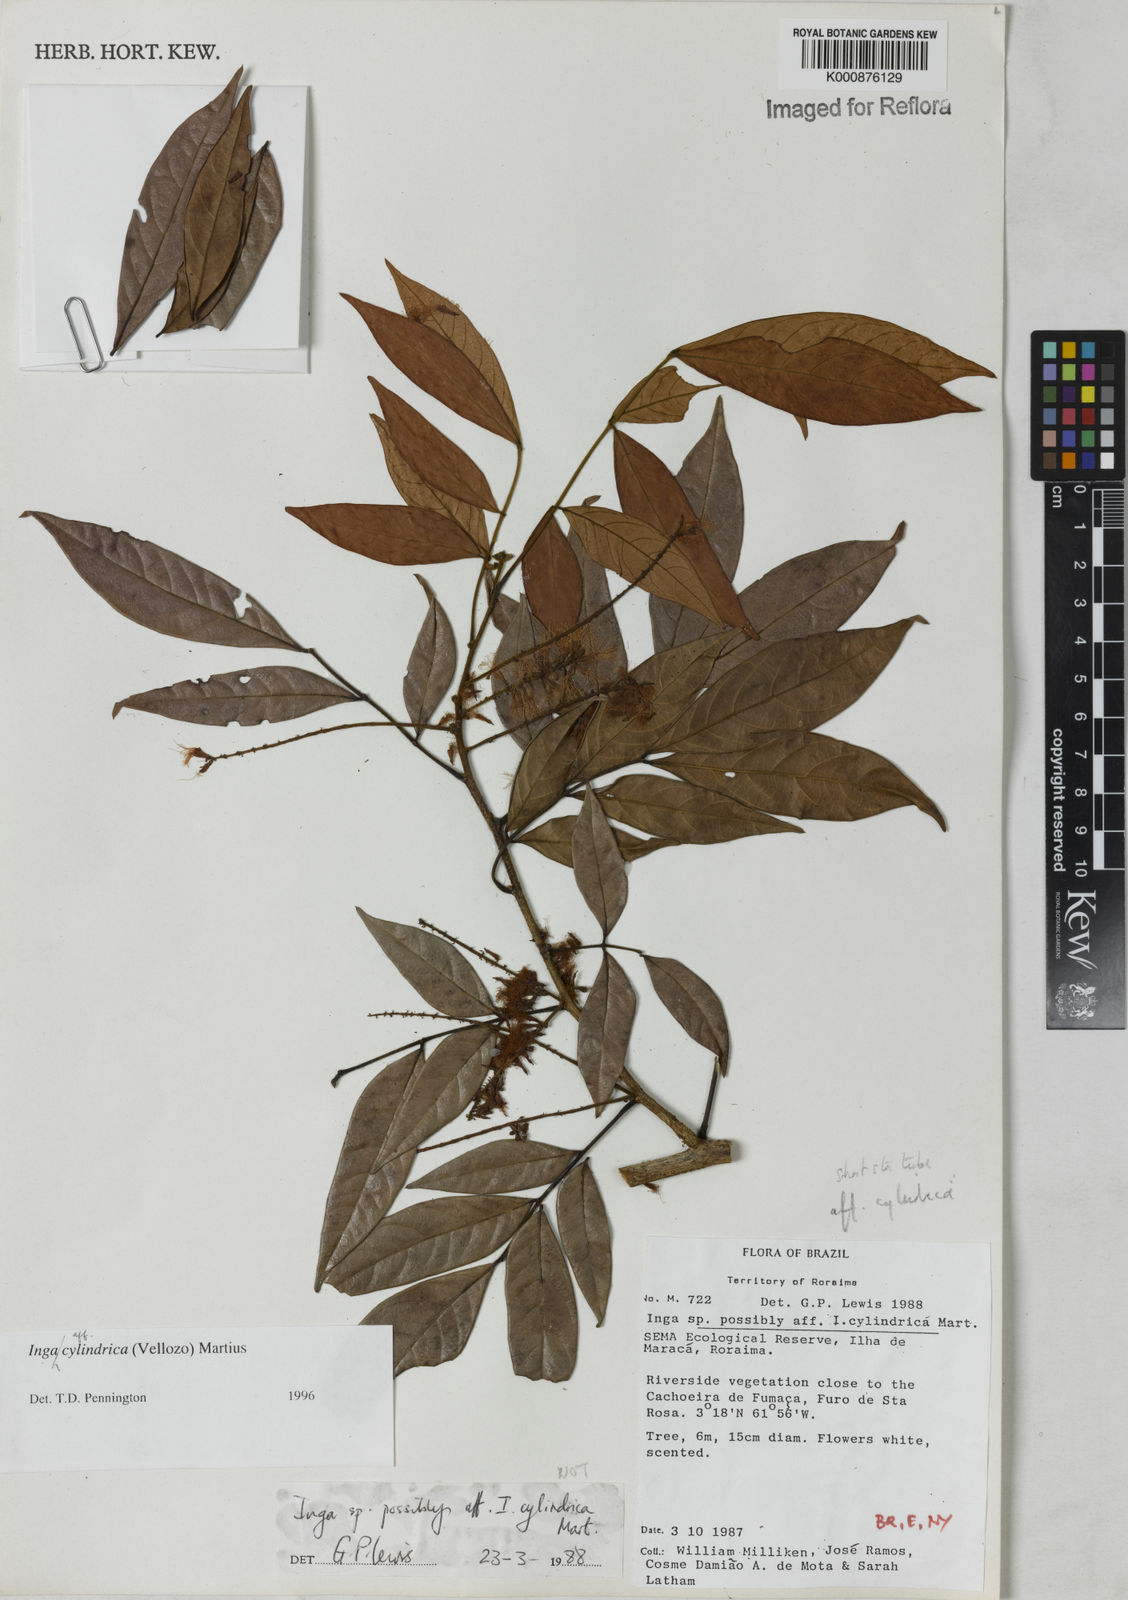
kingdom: Plantae
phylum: Tracheophyta
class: Magnoliopsida
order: Fabales
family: Fabaceae
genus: Inga
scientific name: Inga cylindrica
